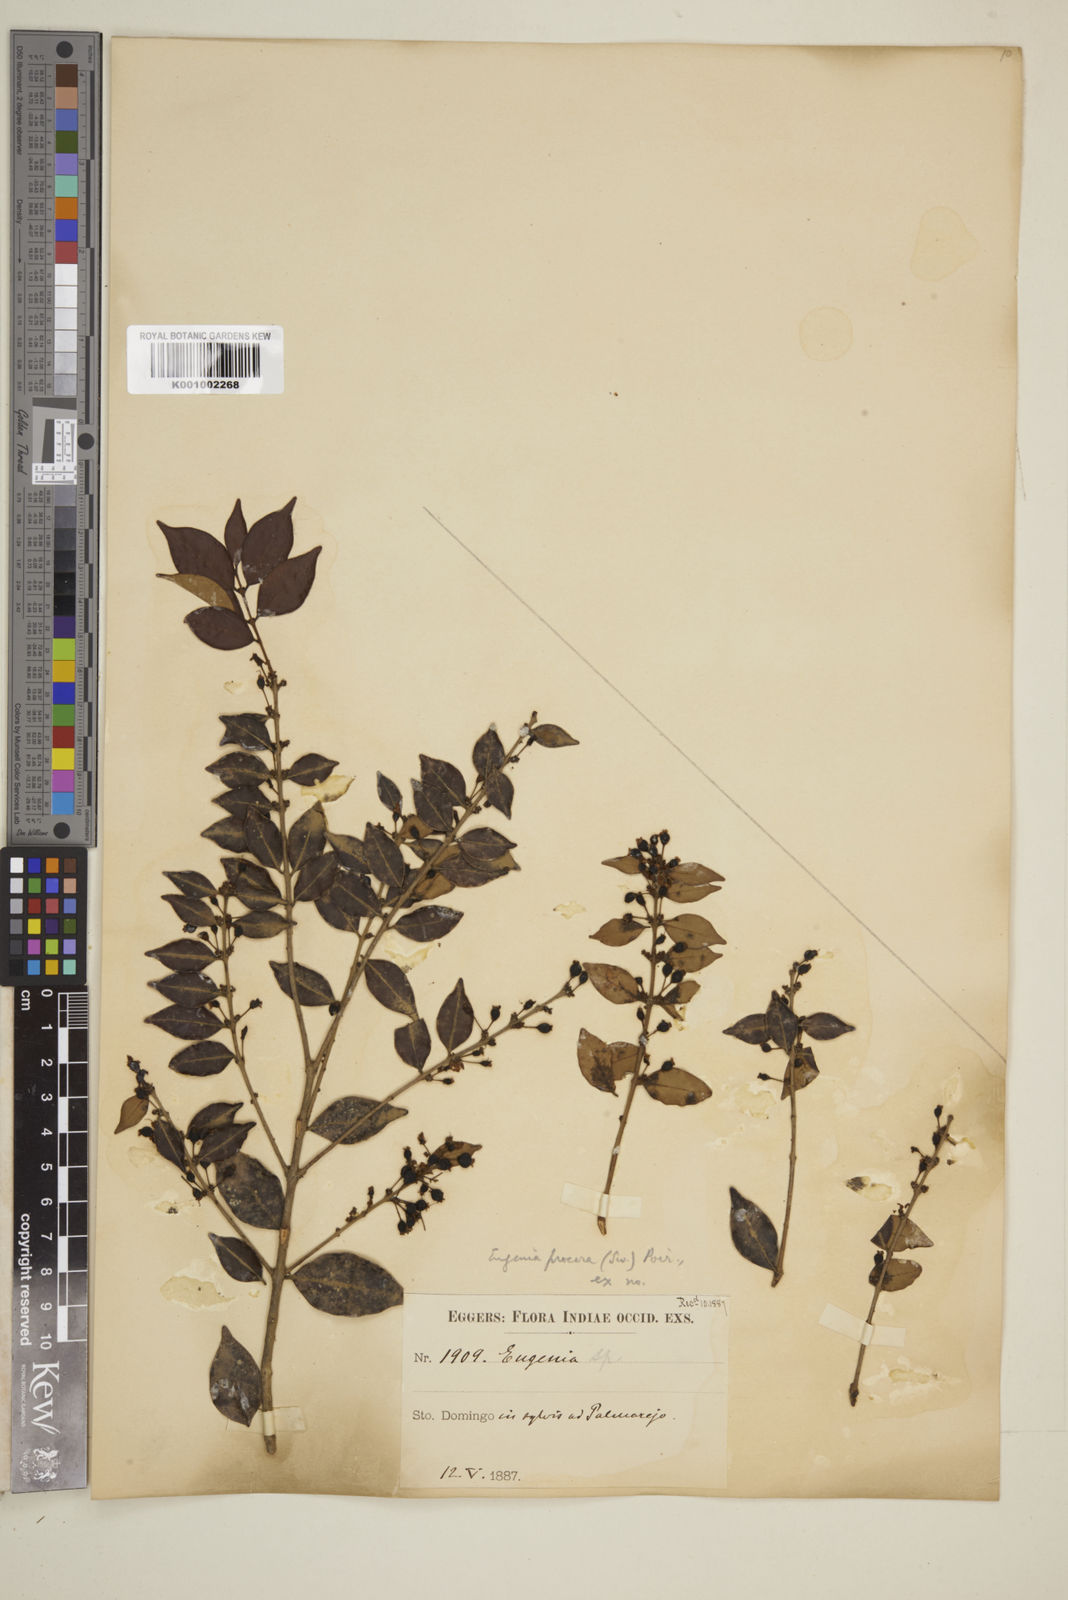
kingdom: Plantae
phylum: Tracheophyta
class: Magnoliopsida
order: Myrtales
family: Myrtaceae
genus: Eugenia
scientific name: Eugenia procera
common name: Bastard blackberry
